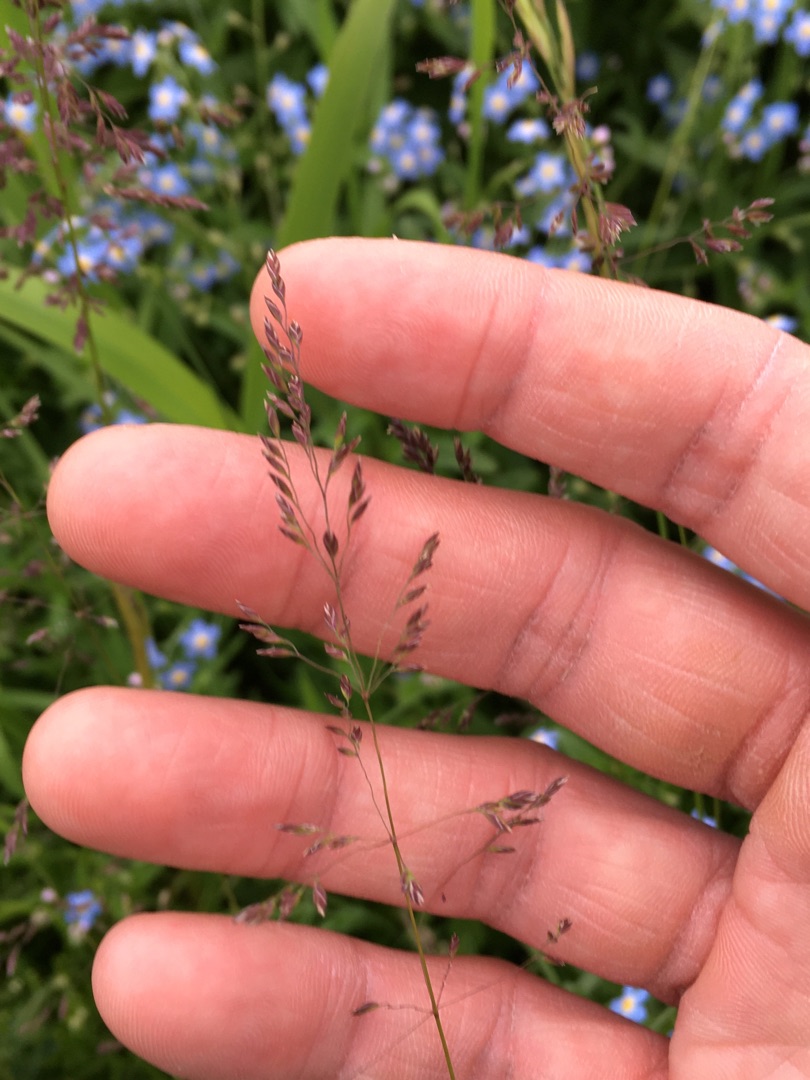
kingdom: Plantae
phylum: Tracheophyta
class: Liliopsida
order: Poales
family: Poaceae
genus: Poa
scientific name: Poa trivialis
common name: Almindelig rapgræs
